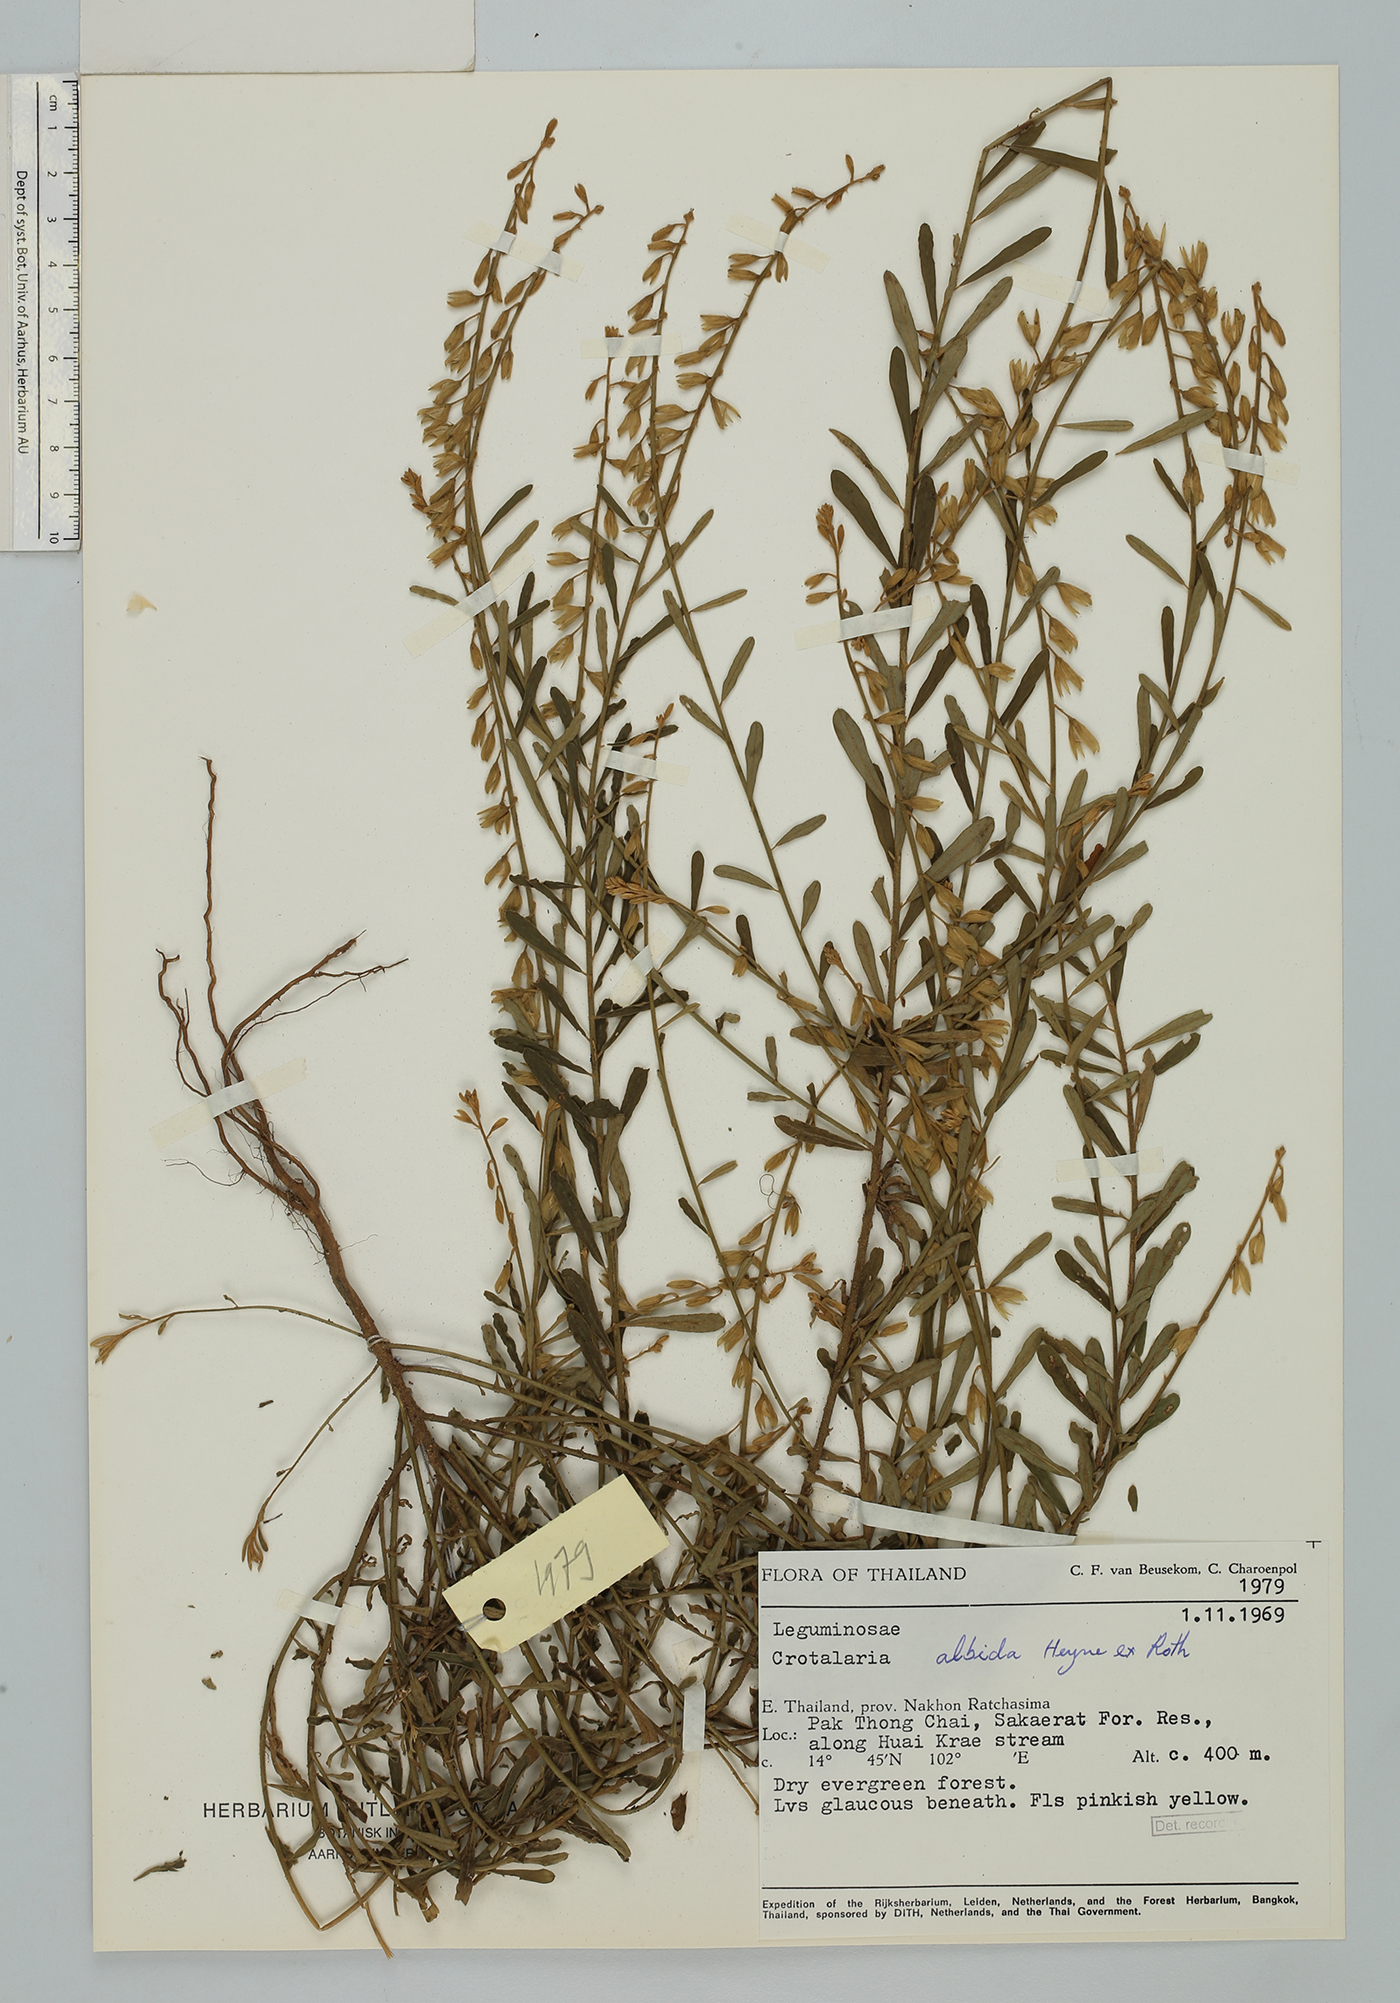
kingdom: Plantae
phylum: Tracheophyta
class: Magnoliopsida
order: Fabales
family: Fabaceae
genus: Crotalaria
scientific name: Crotalaria albida
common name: Taiwan crotalaria
